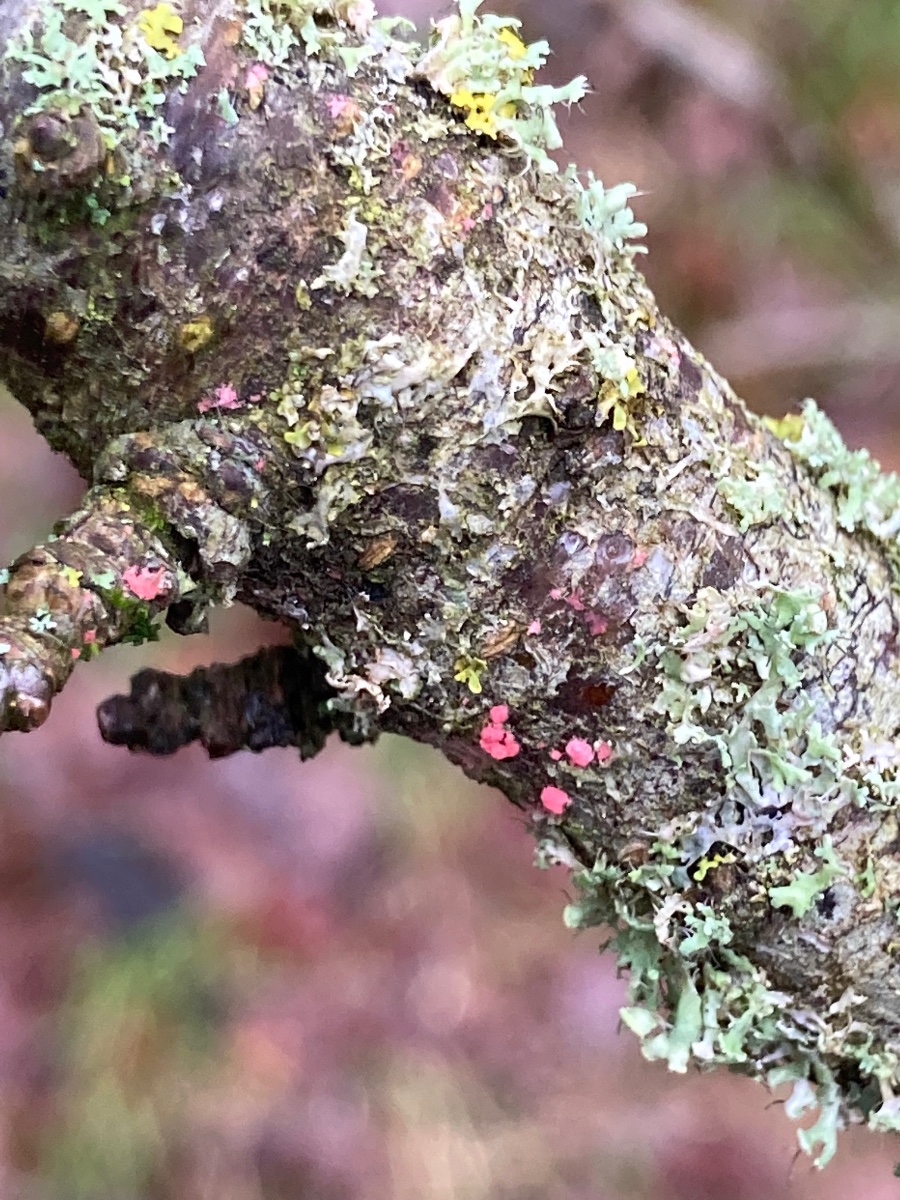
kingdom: Fungi
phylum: Ascomycota
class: Sordariomycetes
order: Hypocreales
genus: Illosporiopsis
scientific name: Illosporiopsis christiansenii
